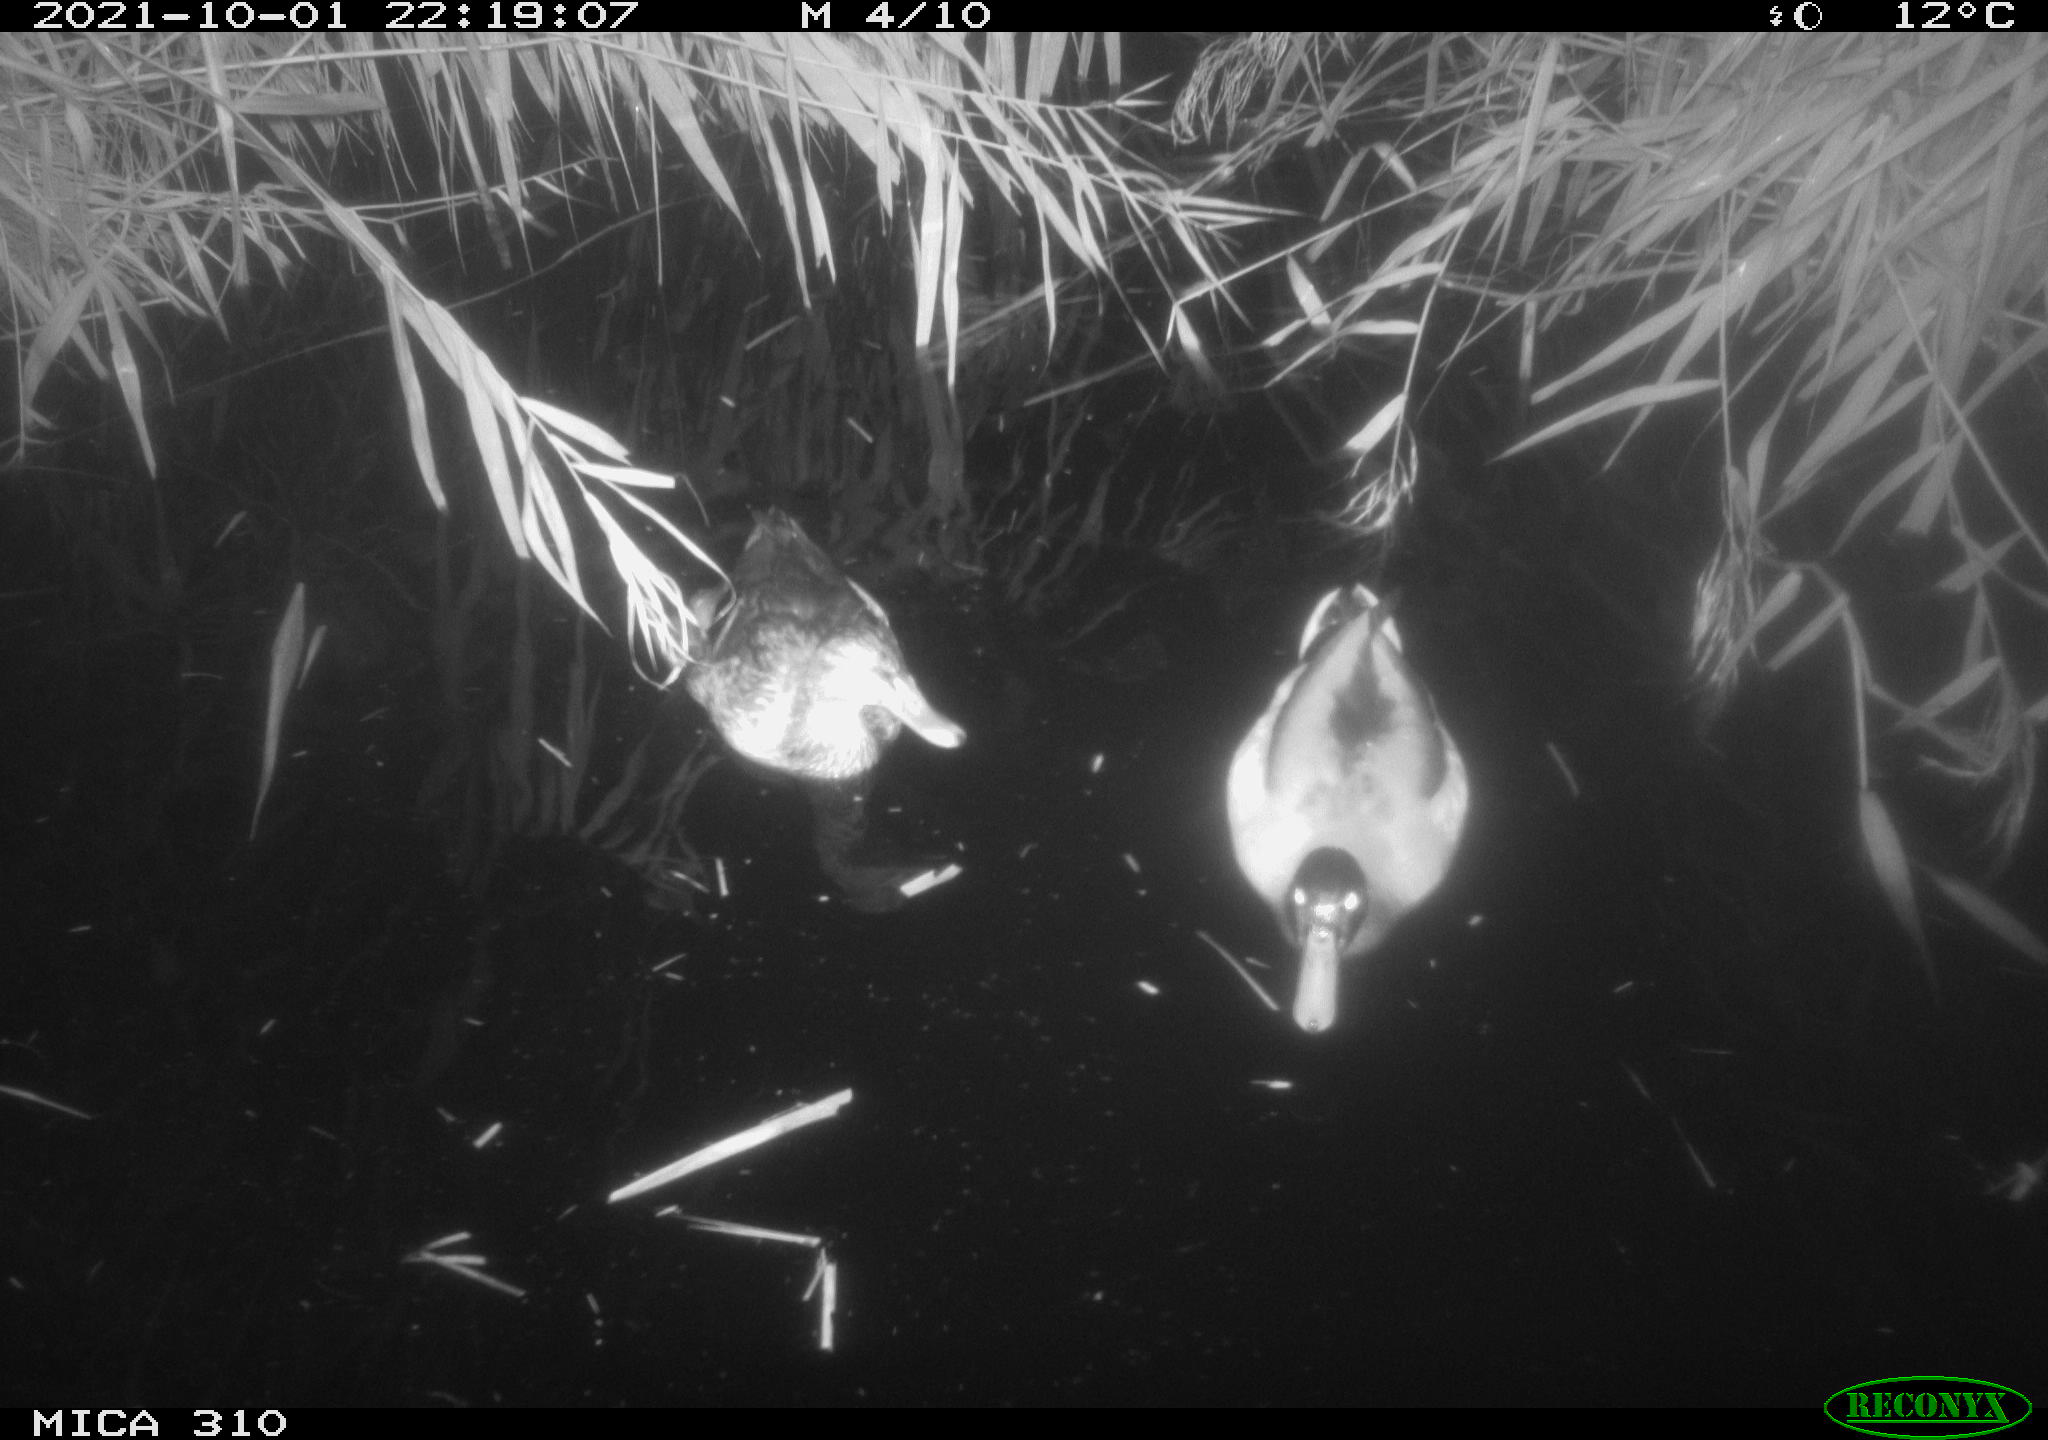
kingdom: Animalia
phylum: Chordata
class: Aves
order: Anseriformes
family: Anatidae
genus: Anas
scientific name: Anas platyrhynchos
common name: Mallard
